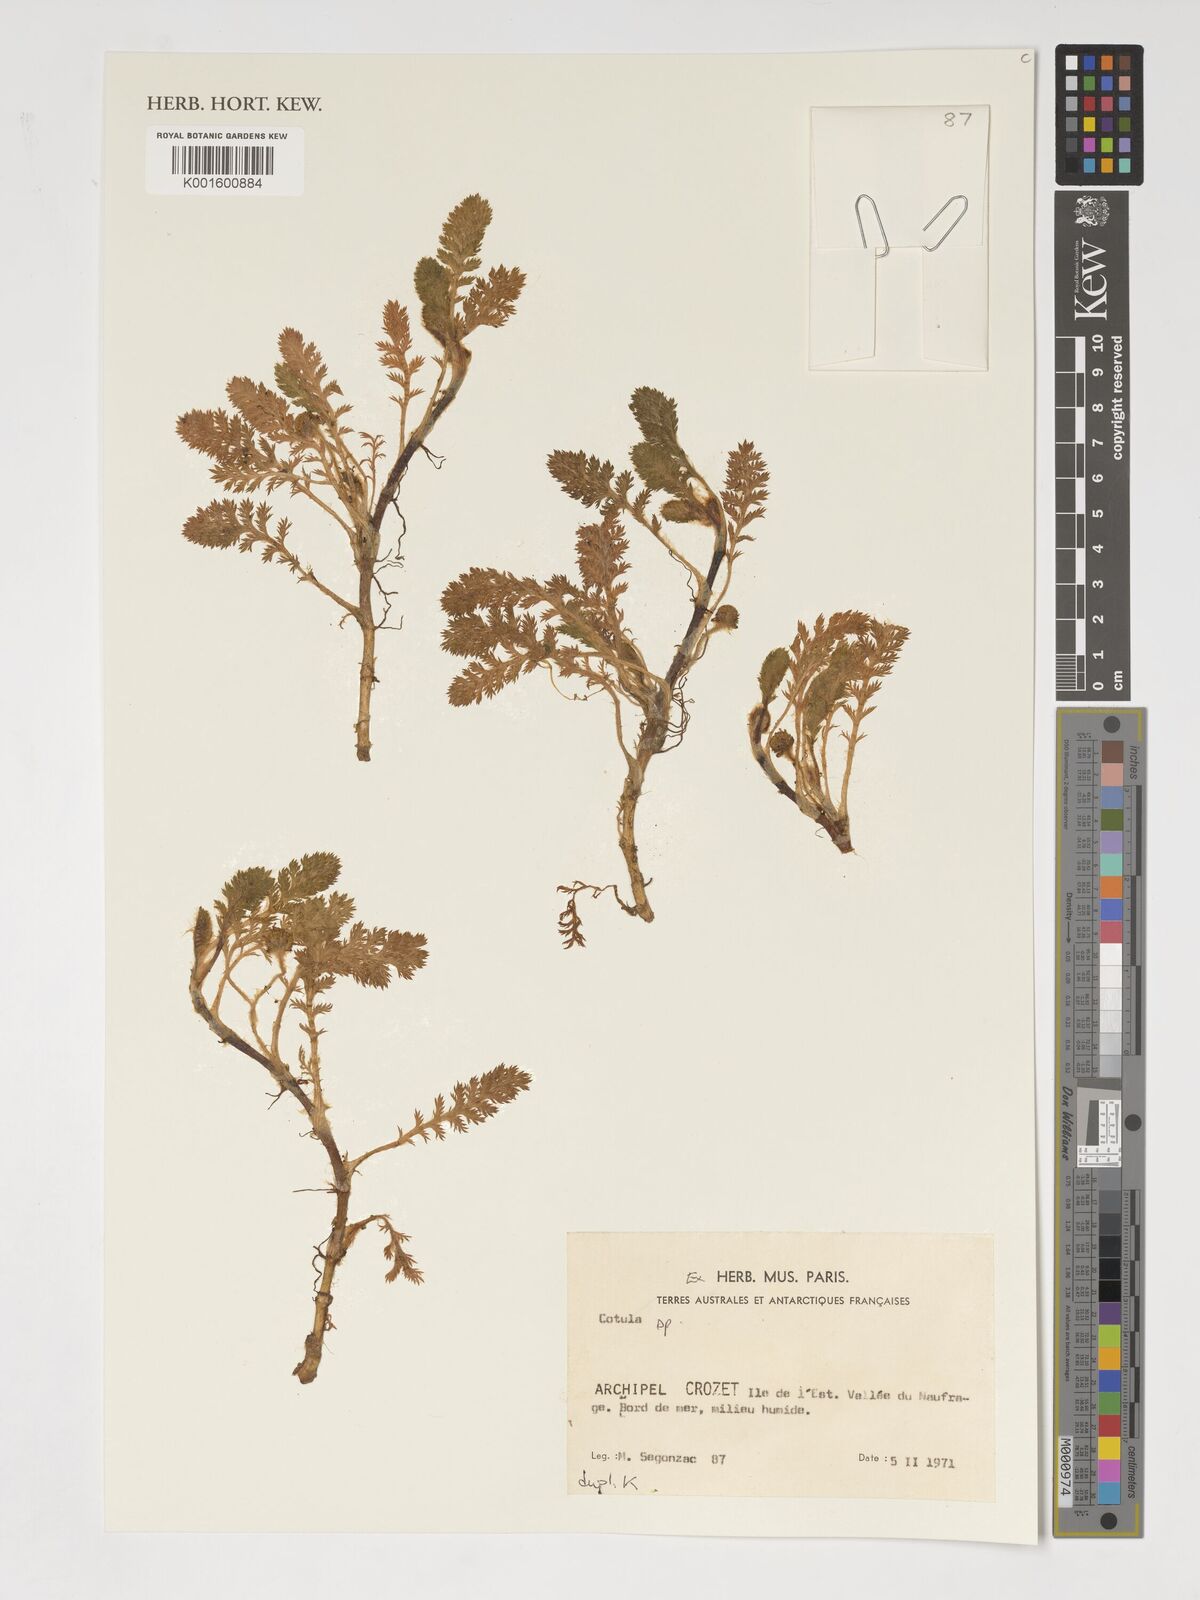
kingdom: Plantae
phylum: Tracheophyta
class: Magnoliopsida
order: Asterales
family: Asteraceae
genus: Cotula
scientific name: Cotula
